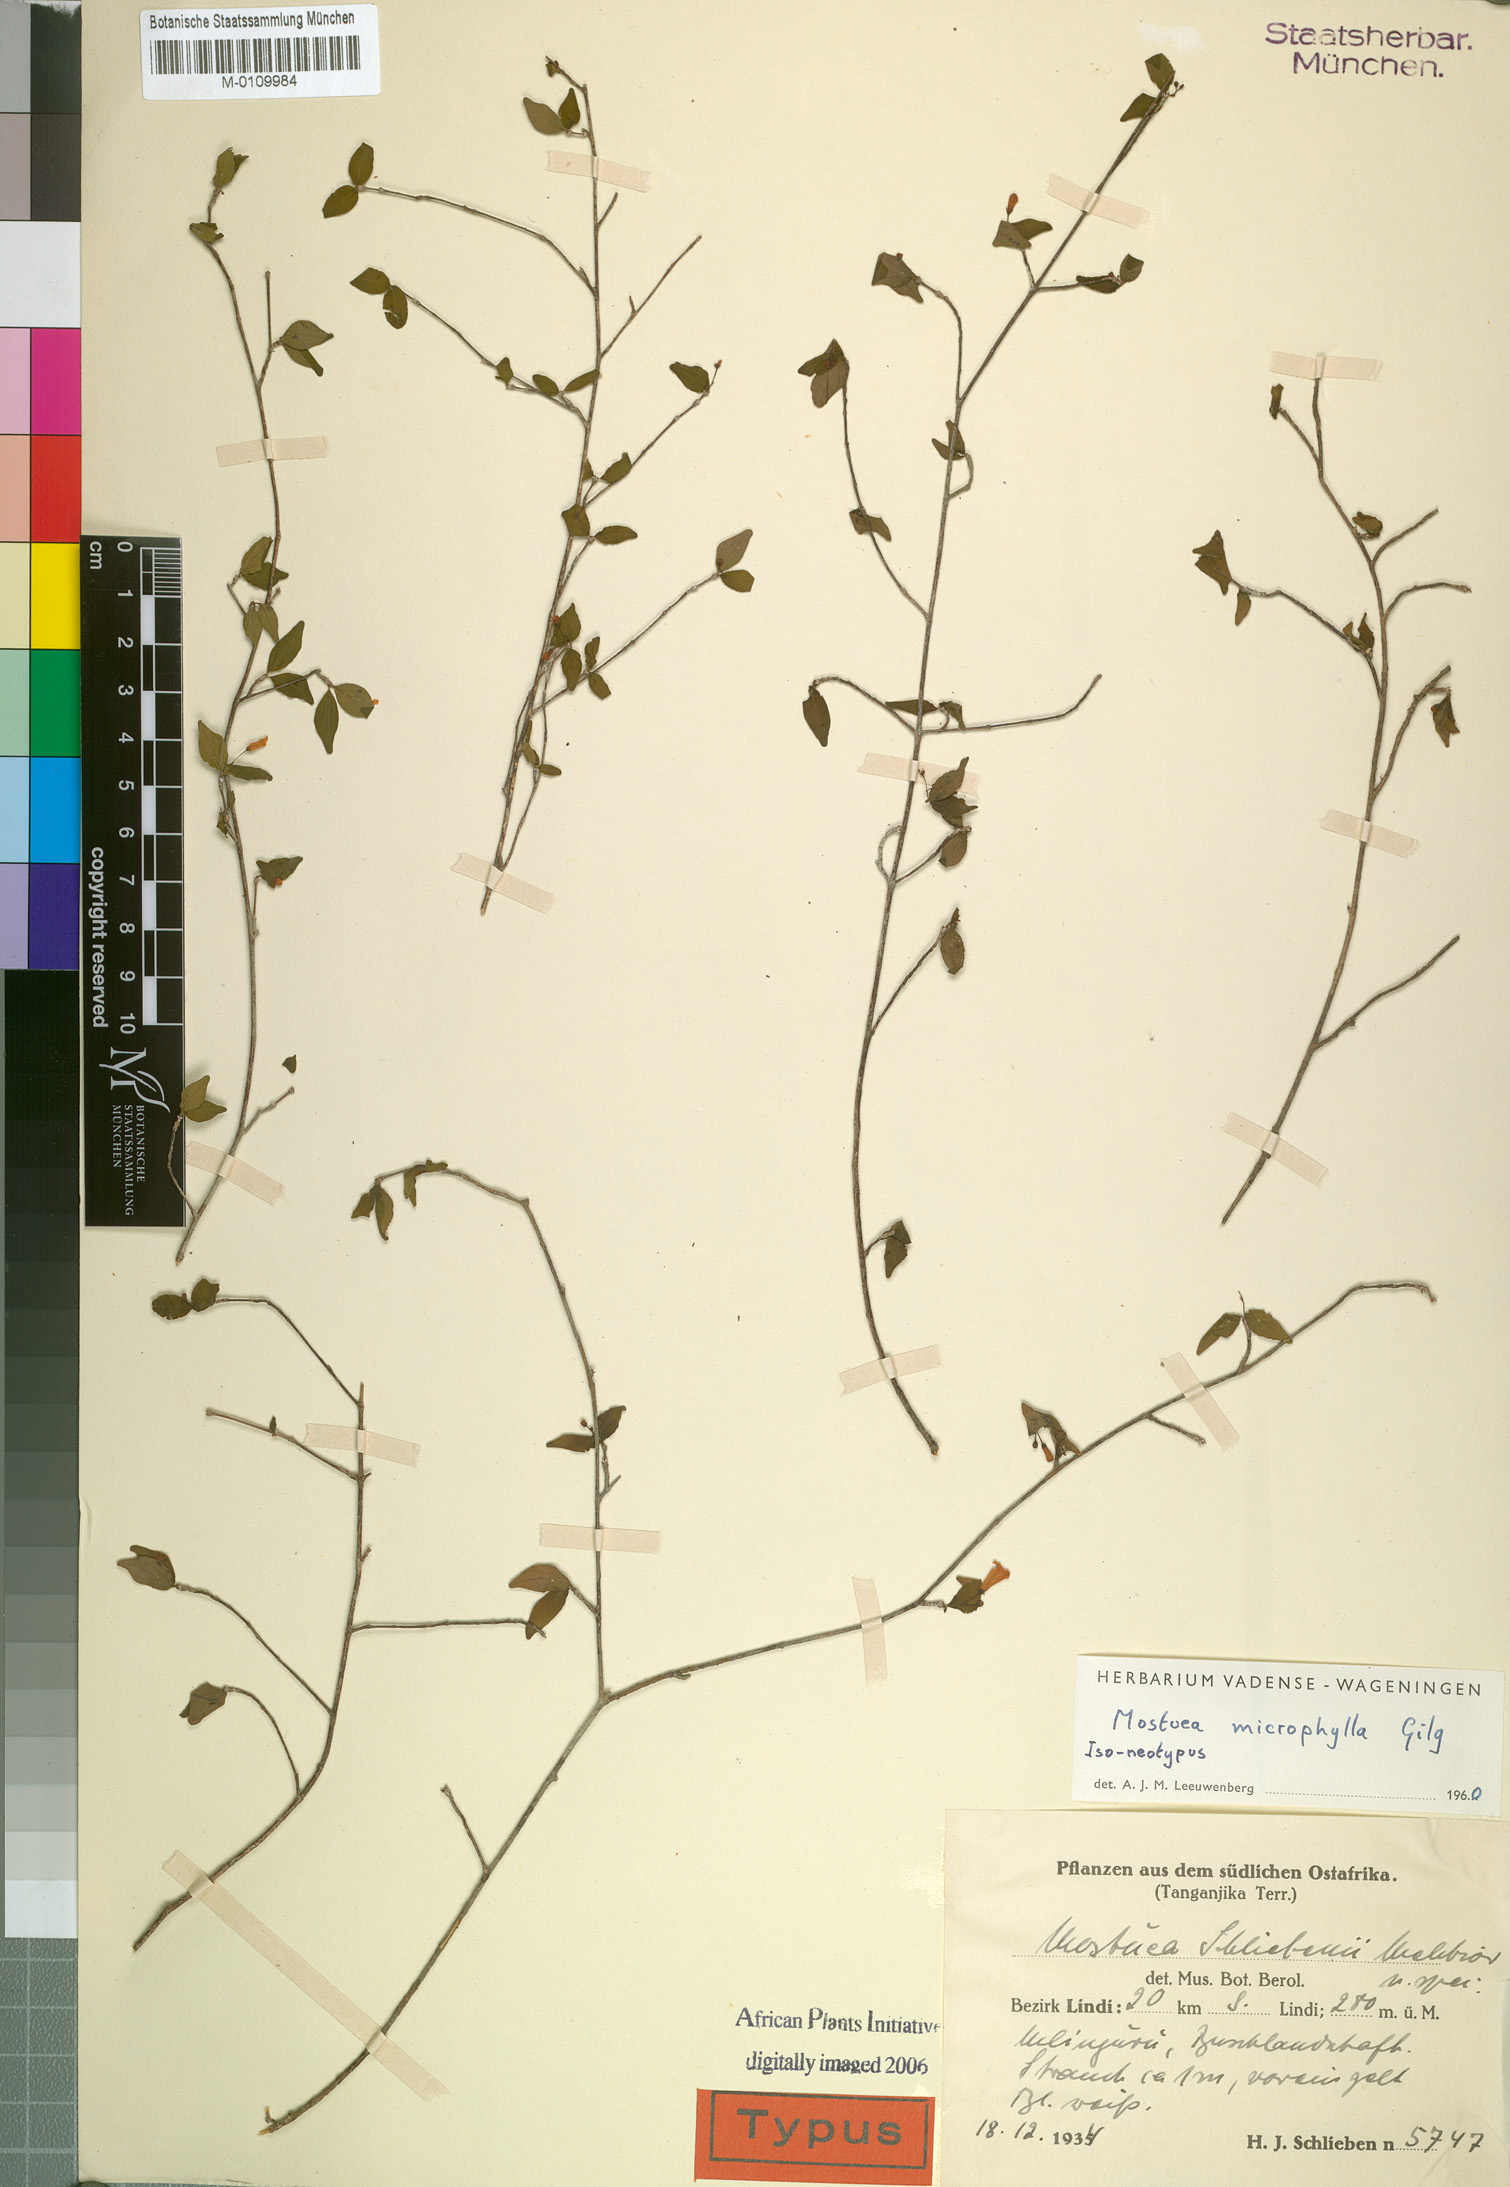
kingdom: Plantae
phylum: Tracheophyta
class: Magnoliopsida
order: Gentianales
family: Gelsemiaceae
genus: Mostuea
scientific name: Mostuea microphylla
